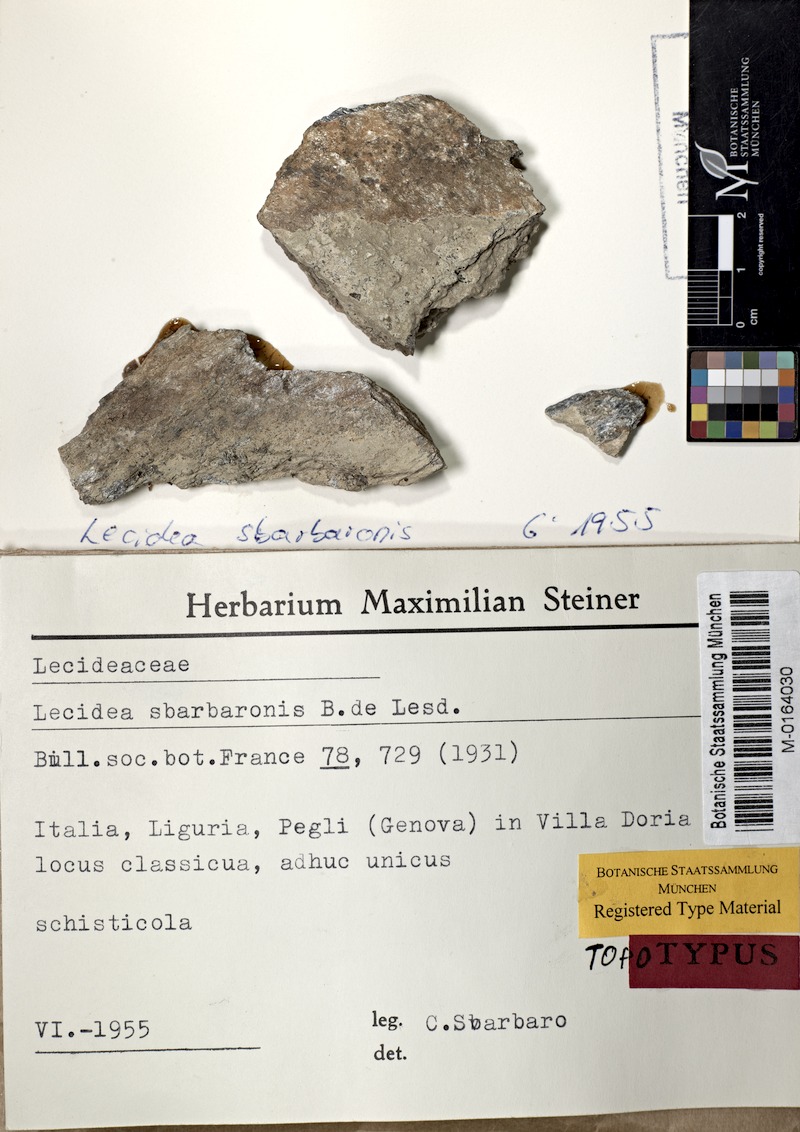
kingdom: Fungi
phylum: Ascomycota
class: Lecanoromycetes
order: Lecideales
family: Lecideaceae
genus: Lecidea
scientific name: Lecidea sbarbaronis
